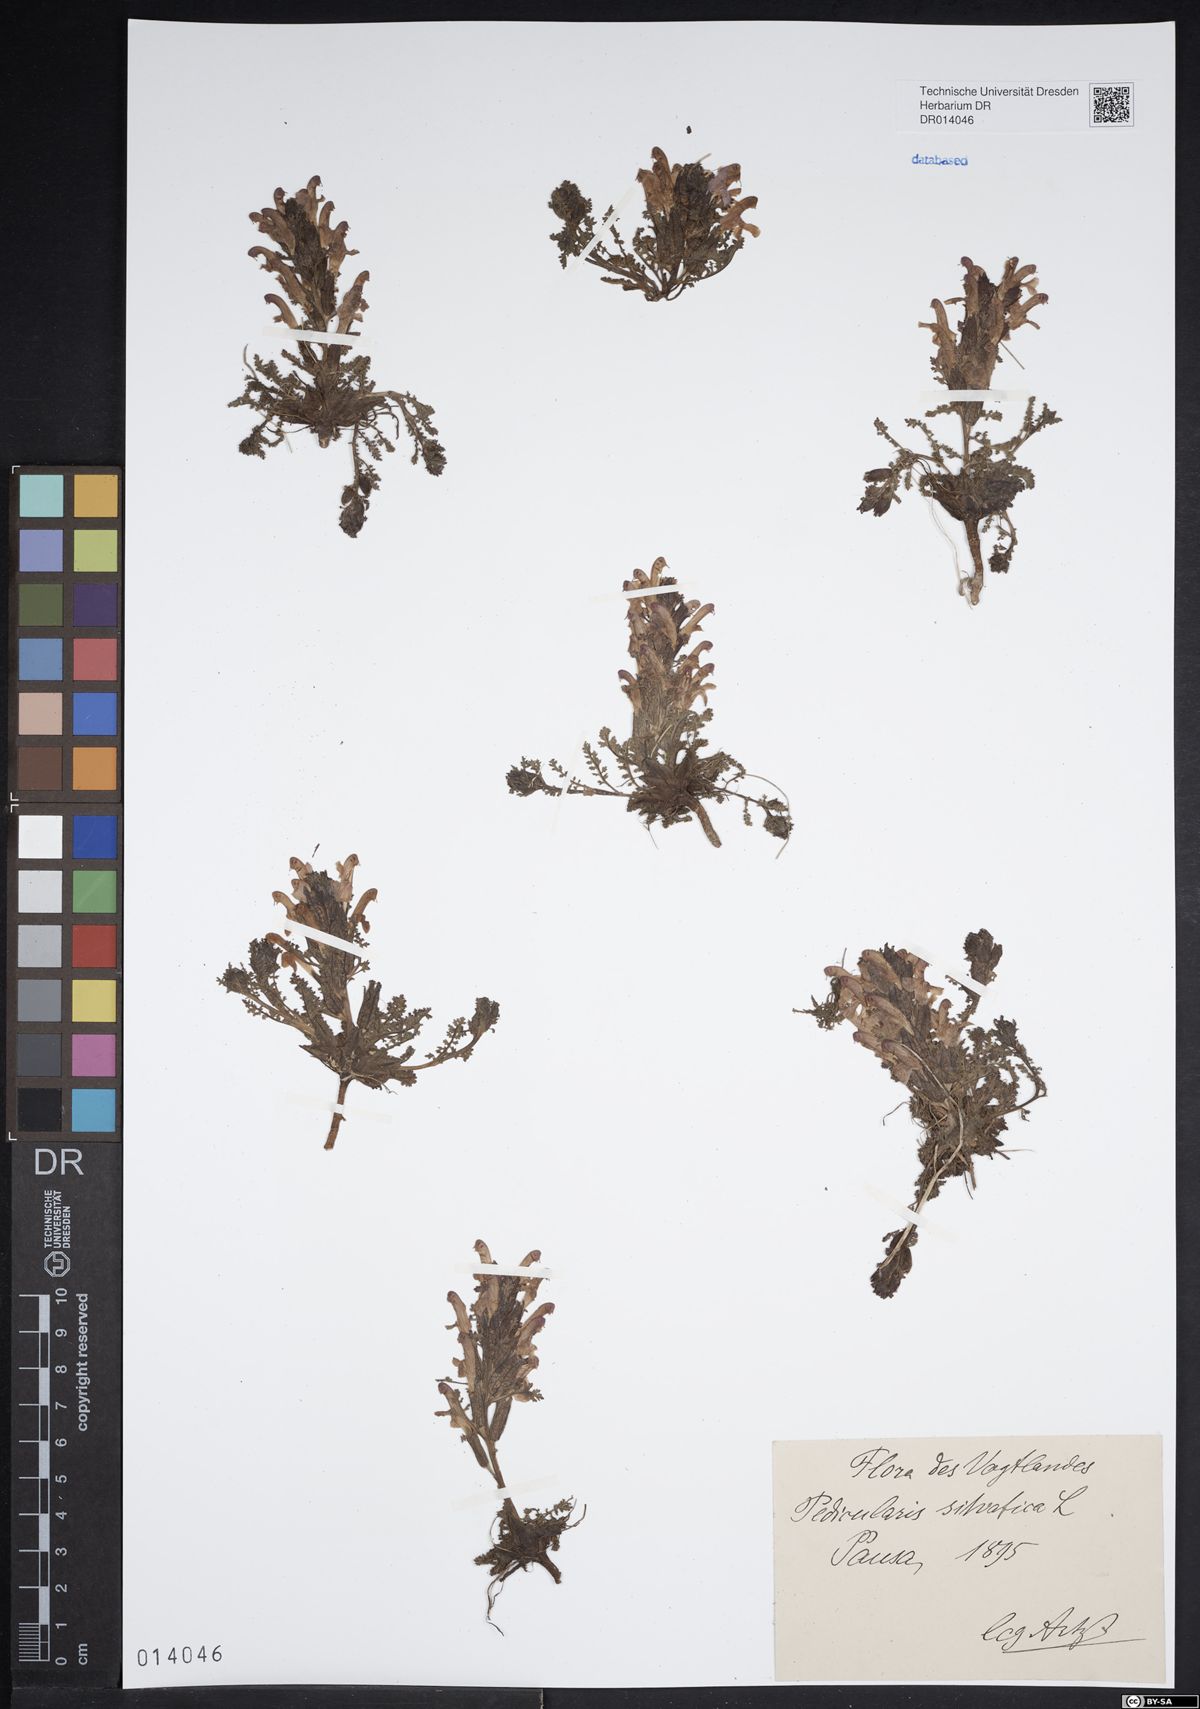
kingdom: Plantae
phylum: Tracheophyta
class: Magnoliopsida
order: Lamiales
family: Orobanchaceae
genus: Pedicularis
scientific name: Pedicularis sylvatica
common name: Lousewort
